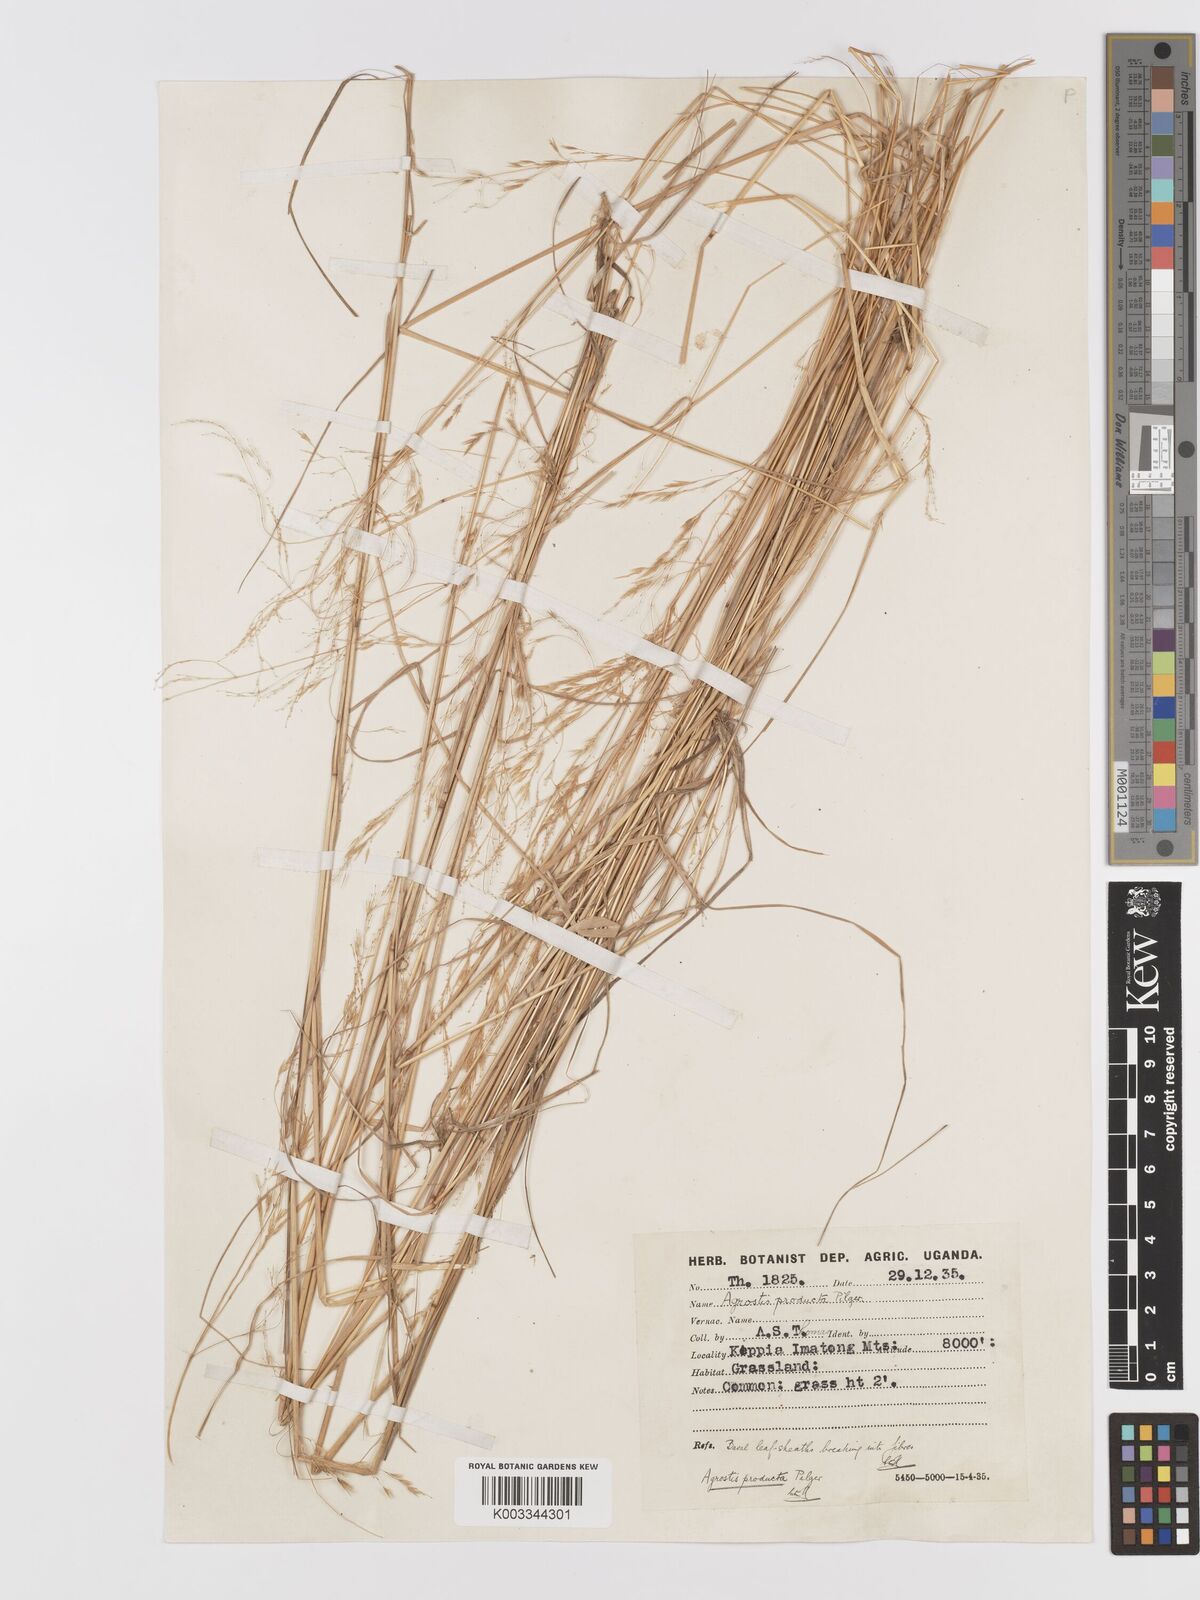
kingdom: Plantae
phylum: Tracheophyta
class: Liliopsida
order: Poales
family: Poaceae
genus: Agrostis
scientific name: Agrostis producta
